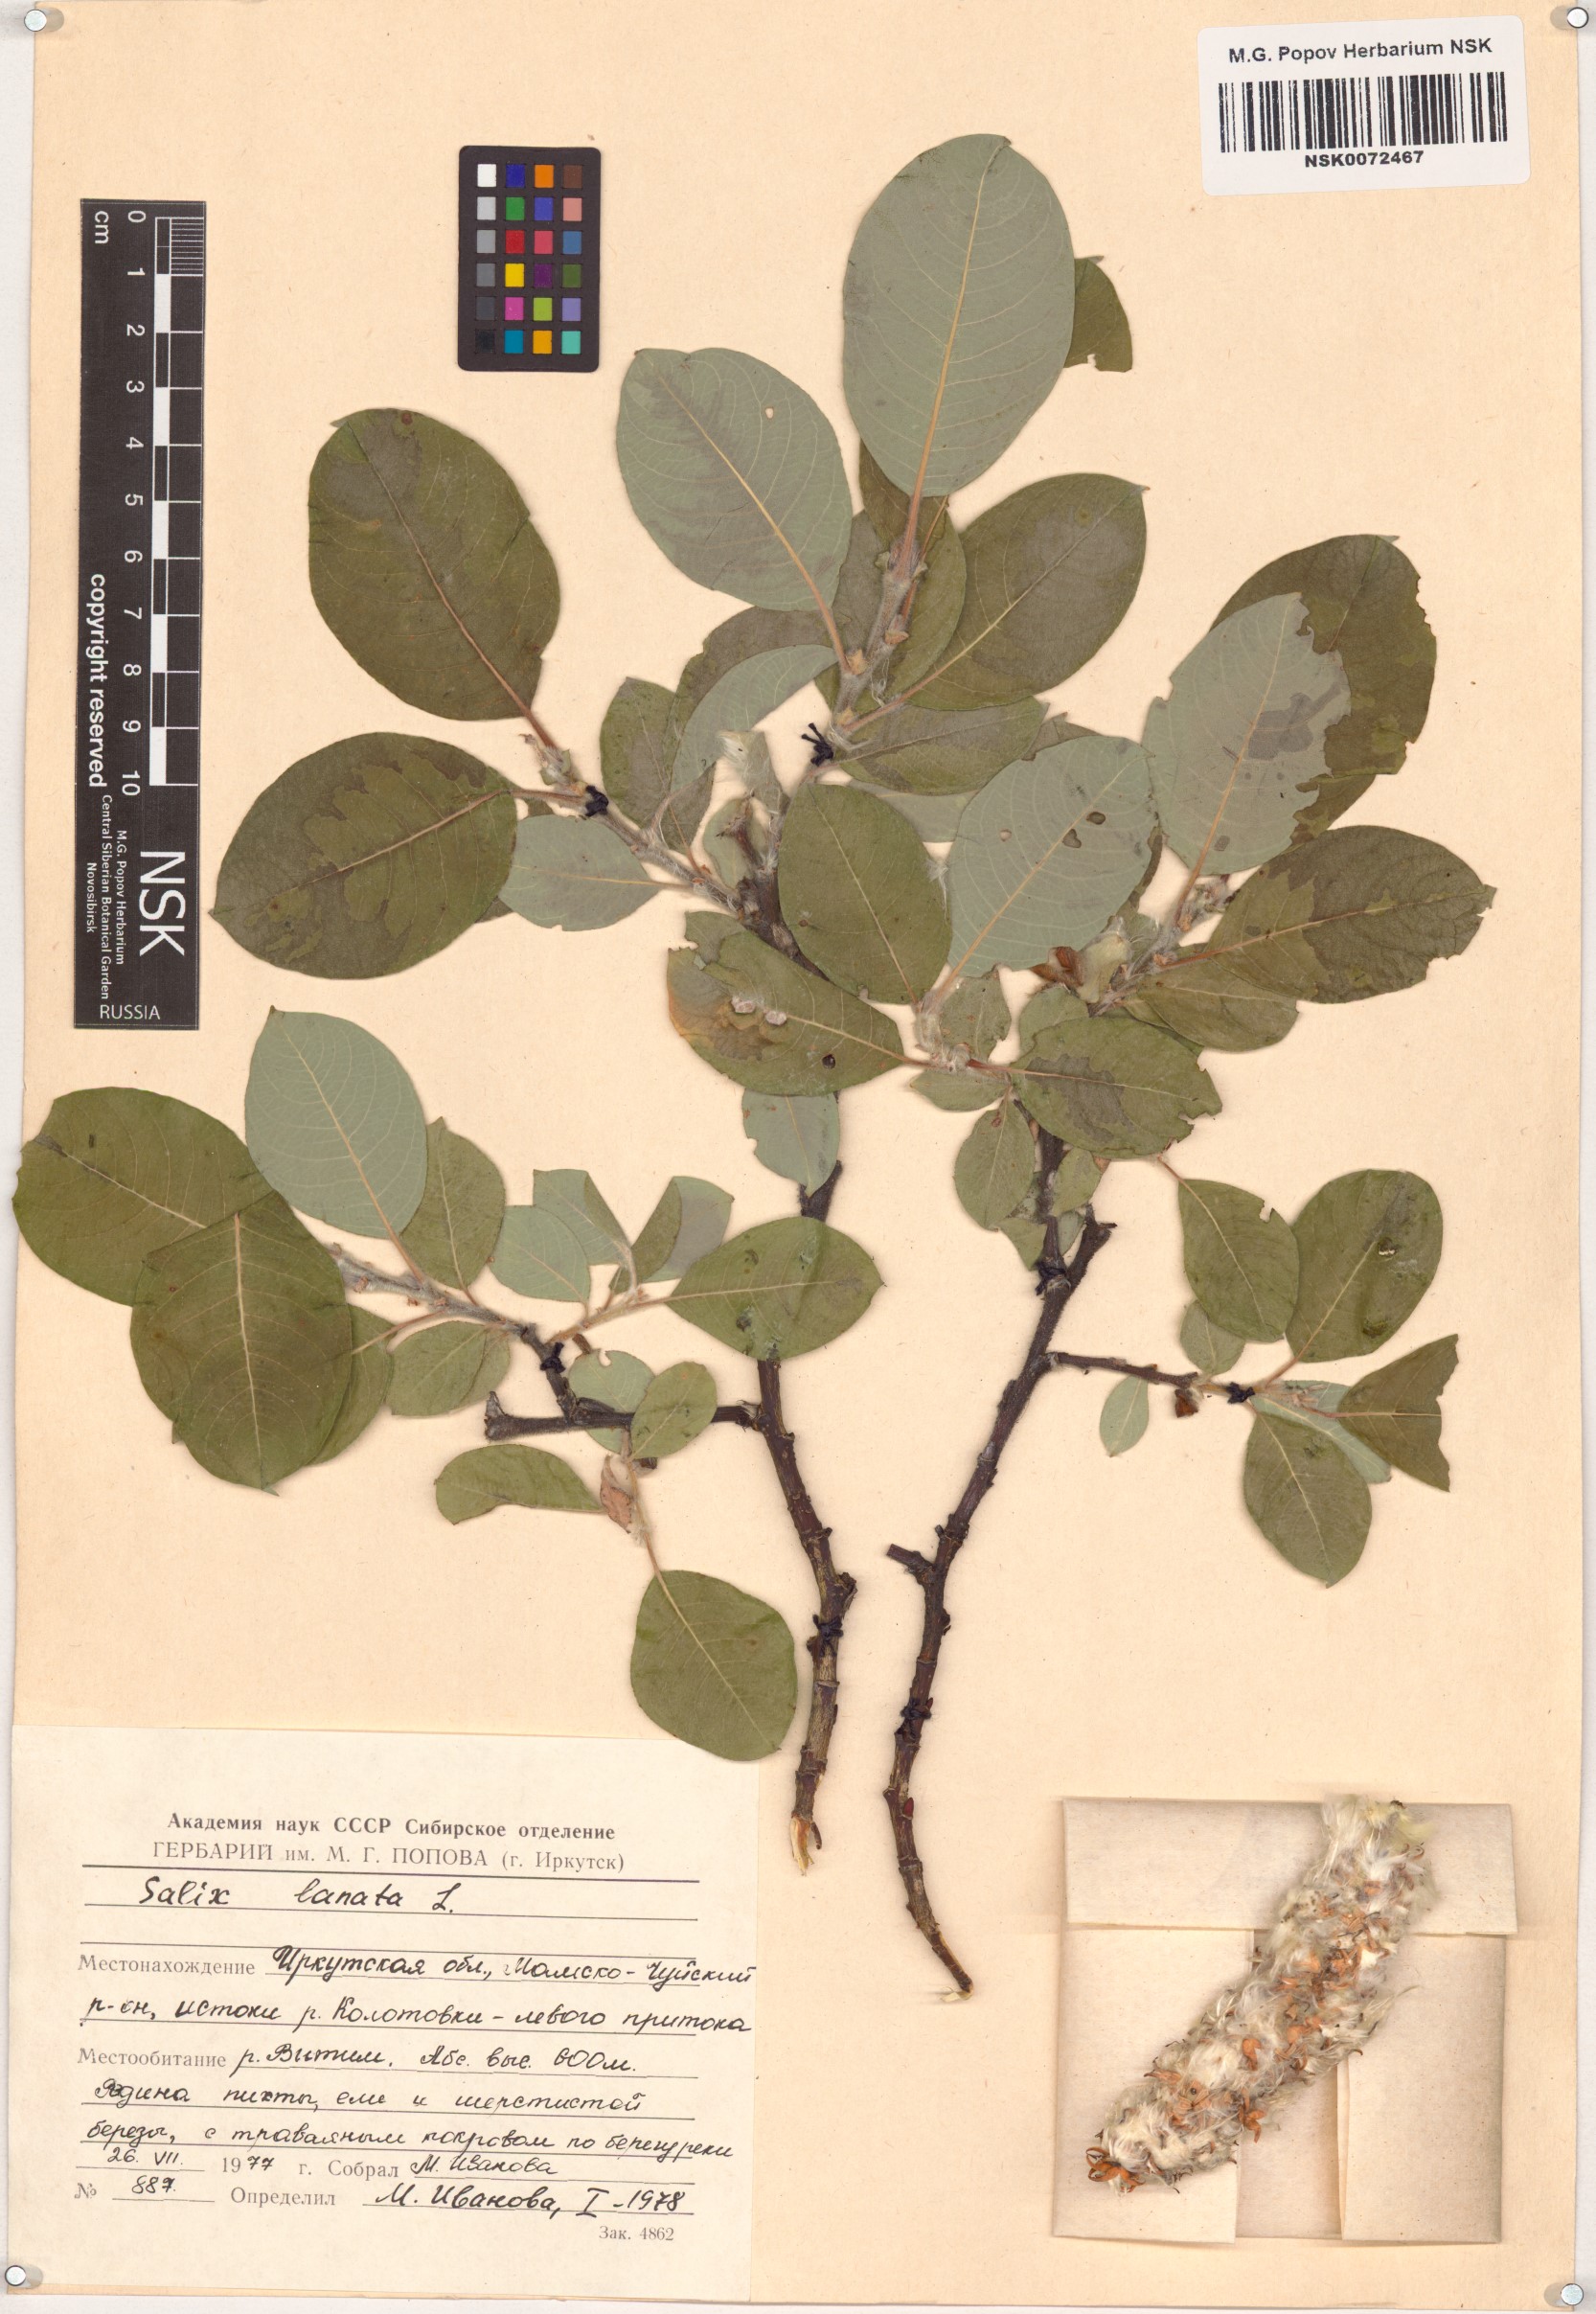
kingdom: Plantae
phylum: Tracheophyta
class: Magnoliopsida
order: Malpighiales
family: Salicaceae
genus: Salix
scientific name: Salix lanata
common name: Woolly willow
